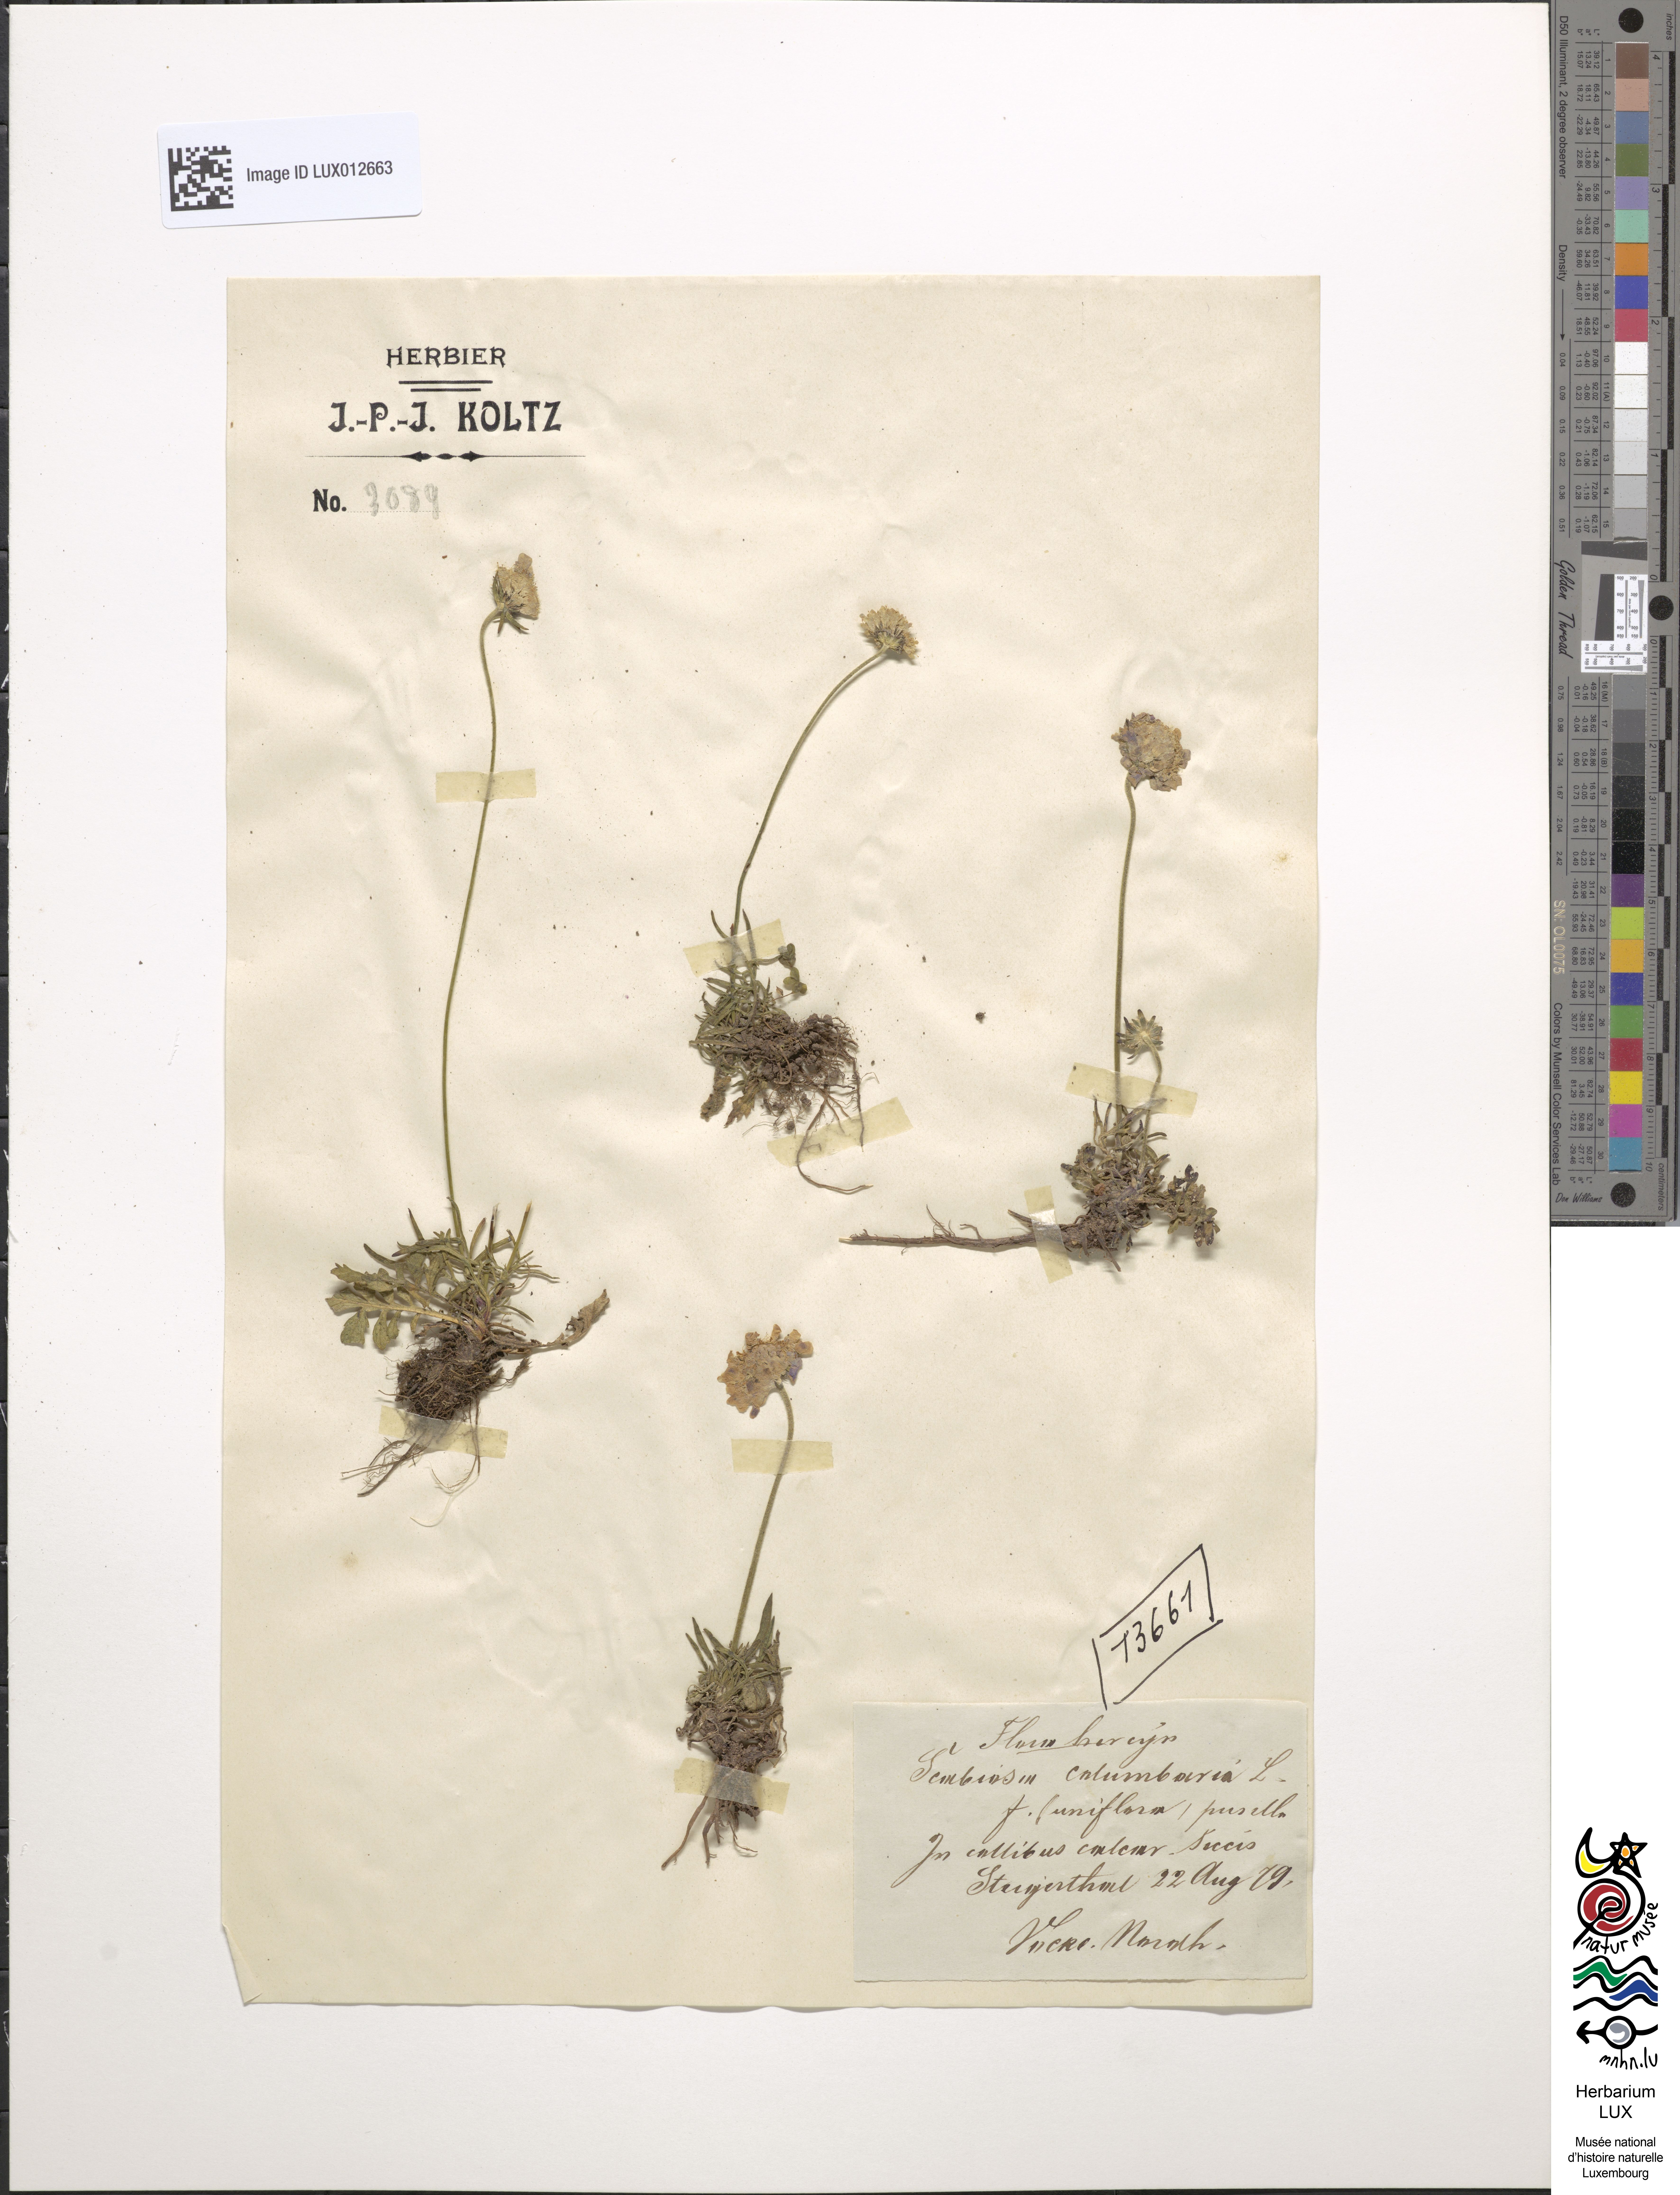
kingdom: Plantae
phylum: Tracheophyta
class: Magnoliopsida
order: Dipsacales
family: Caprifoliaceae
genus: Scabiosa
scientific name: Scabiosa columbaria
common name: Small scabious
